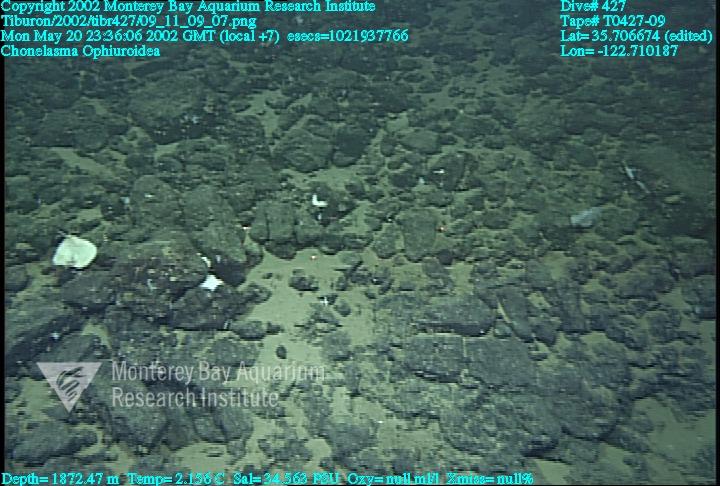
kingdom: Animalia
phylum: Porifera
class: Hexactinellida
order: Sceptrulophora
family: Euretidae
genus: Chonelasma
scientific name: Chonelasma
